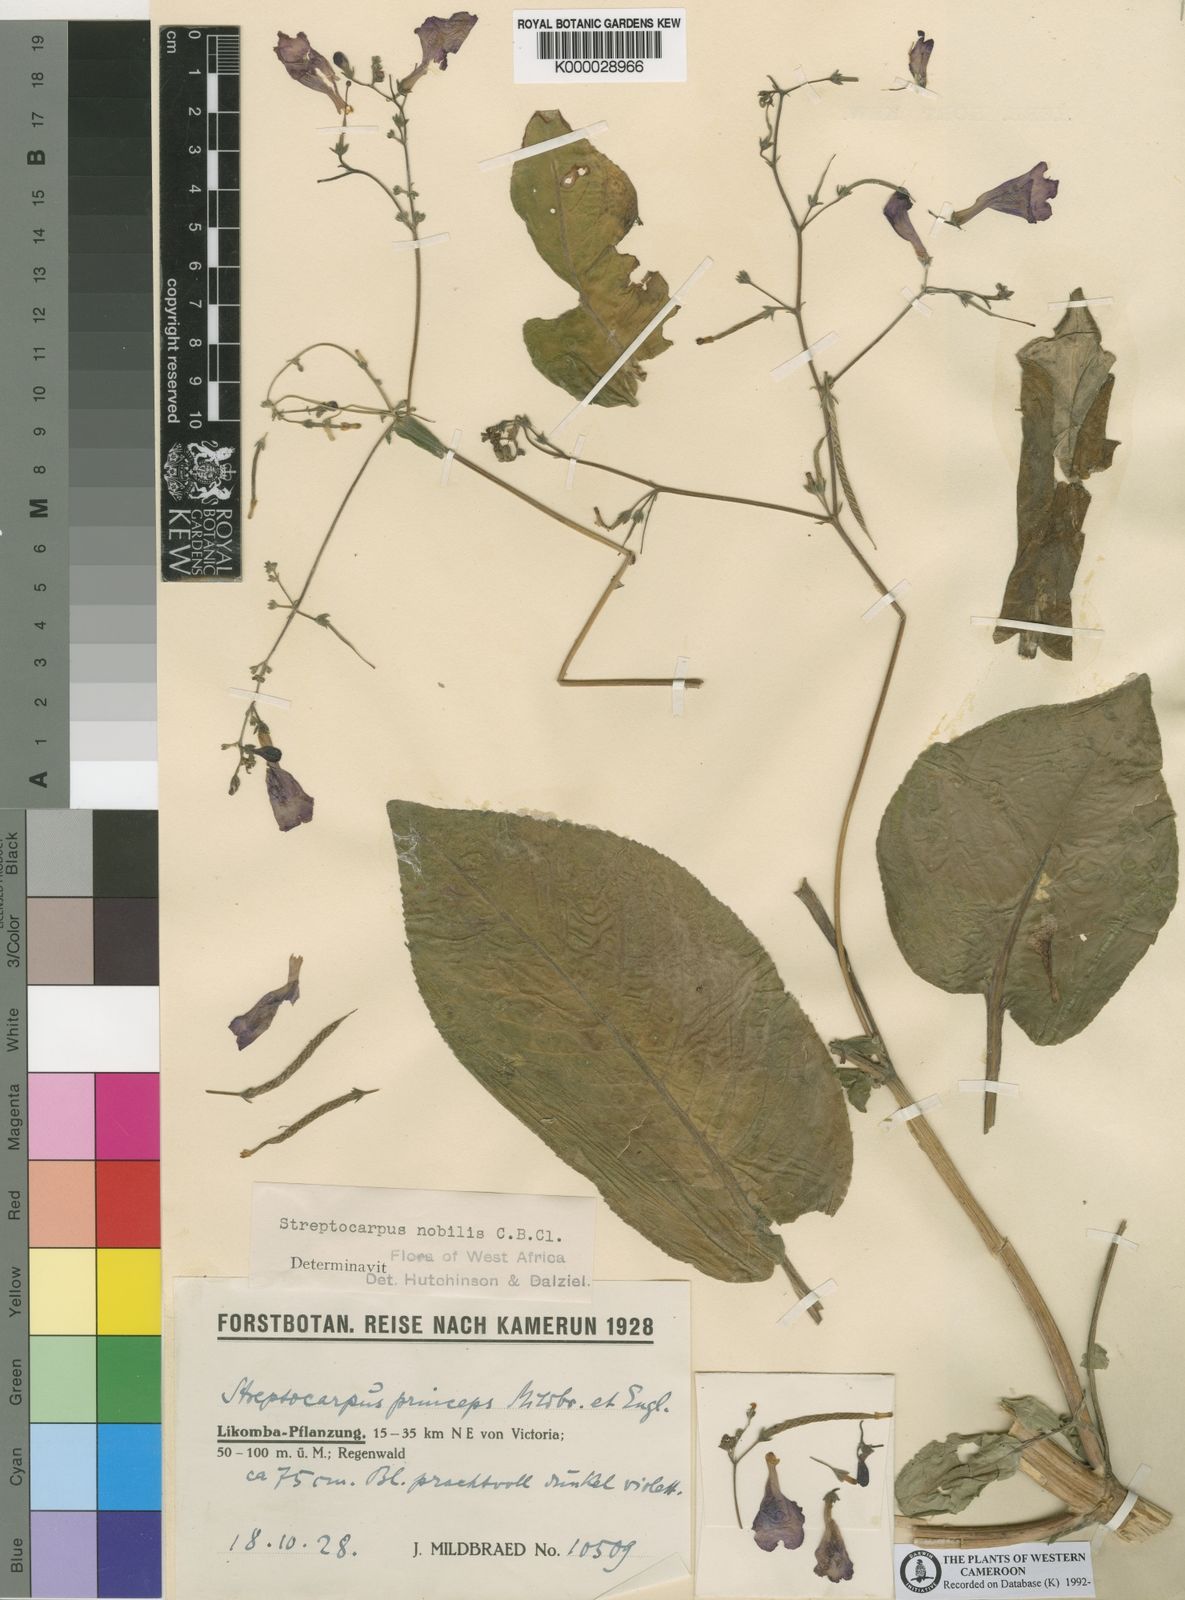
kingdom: Plantae
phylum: Tracheophyta
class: Magnoliopsida
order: Lamiales
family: Gesneriaceae
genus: Streptocarpus
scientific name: Streptocarpus nobilis
